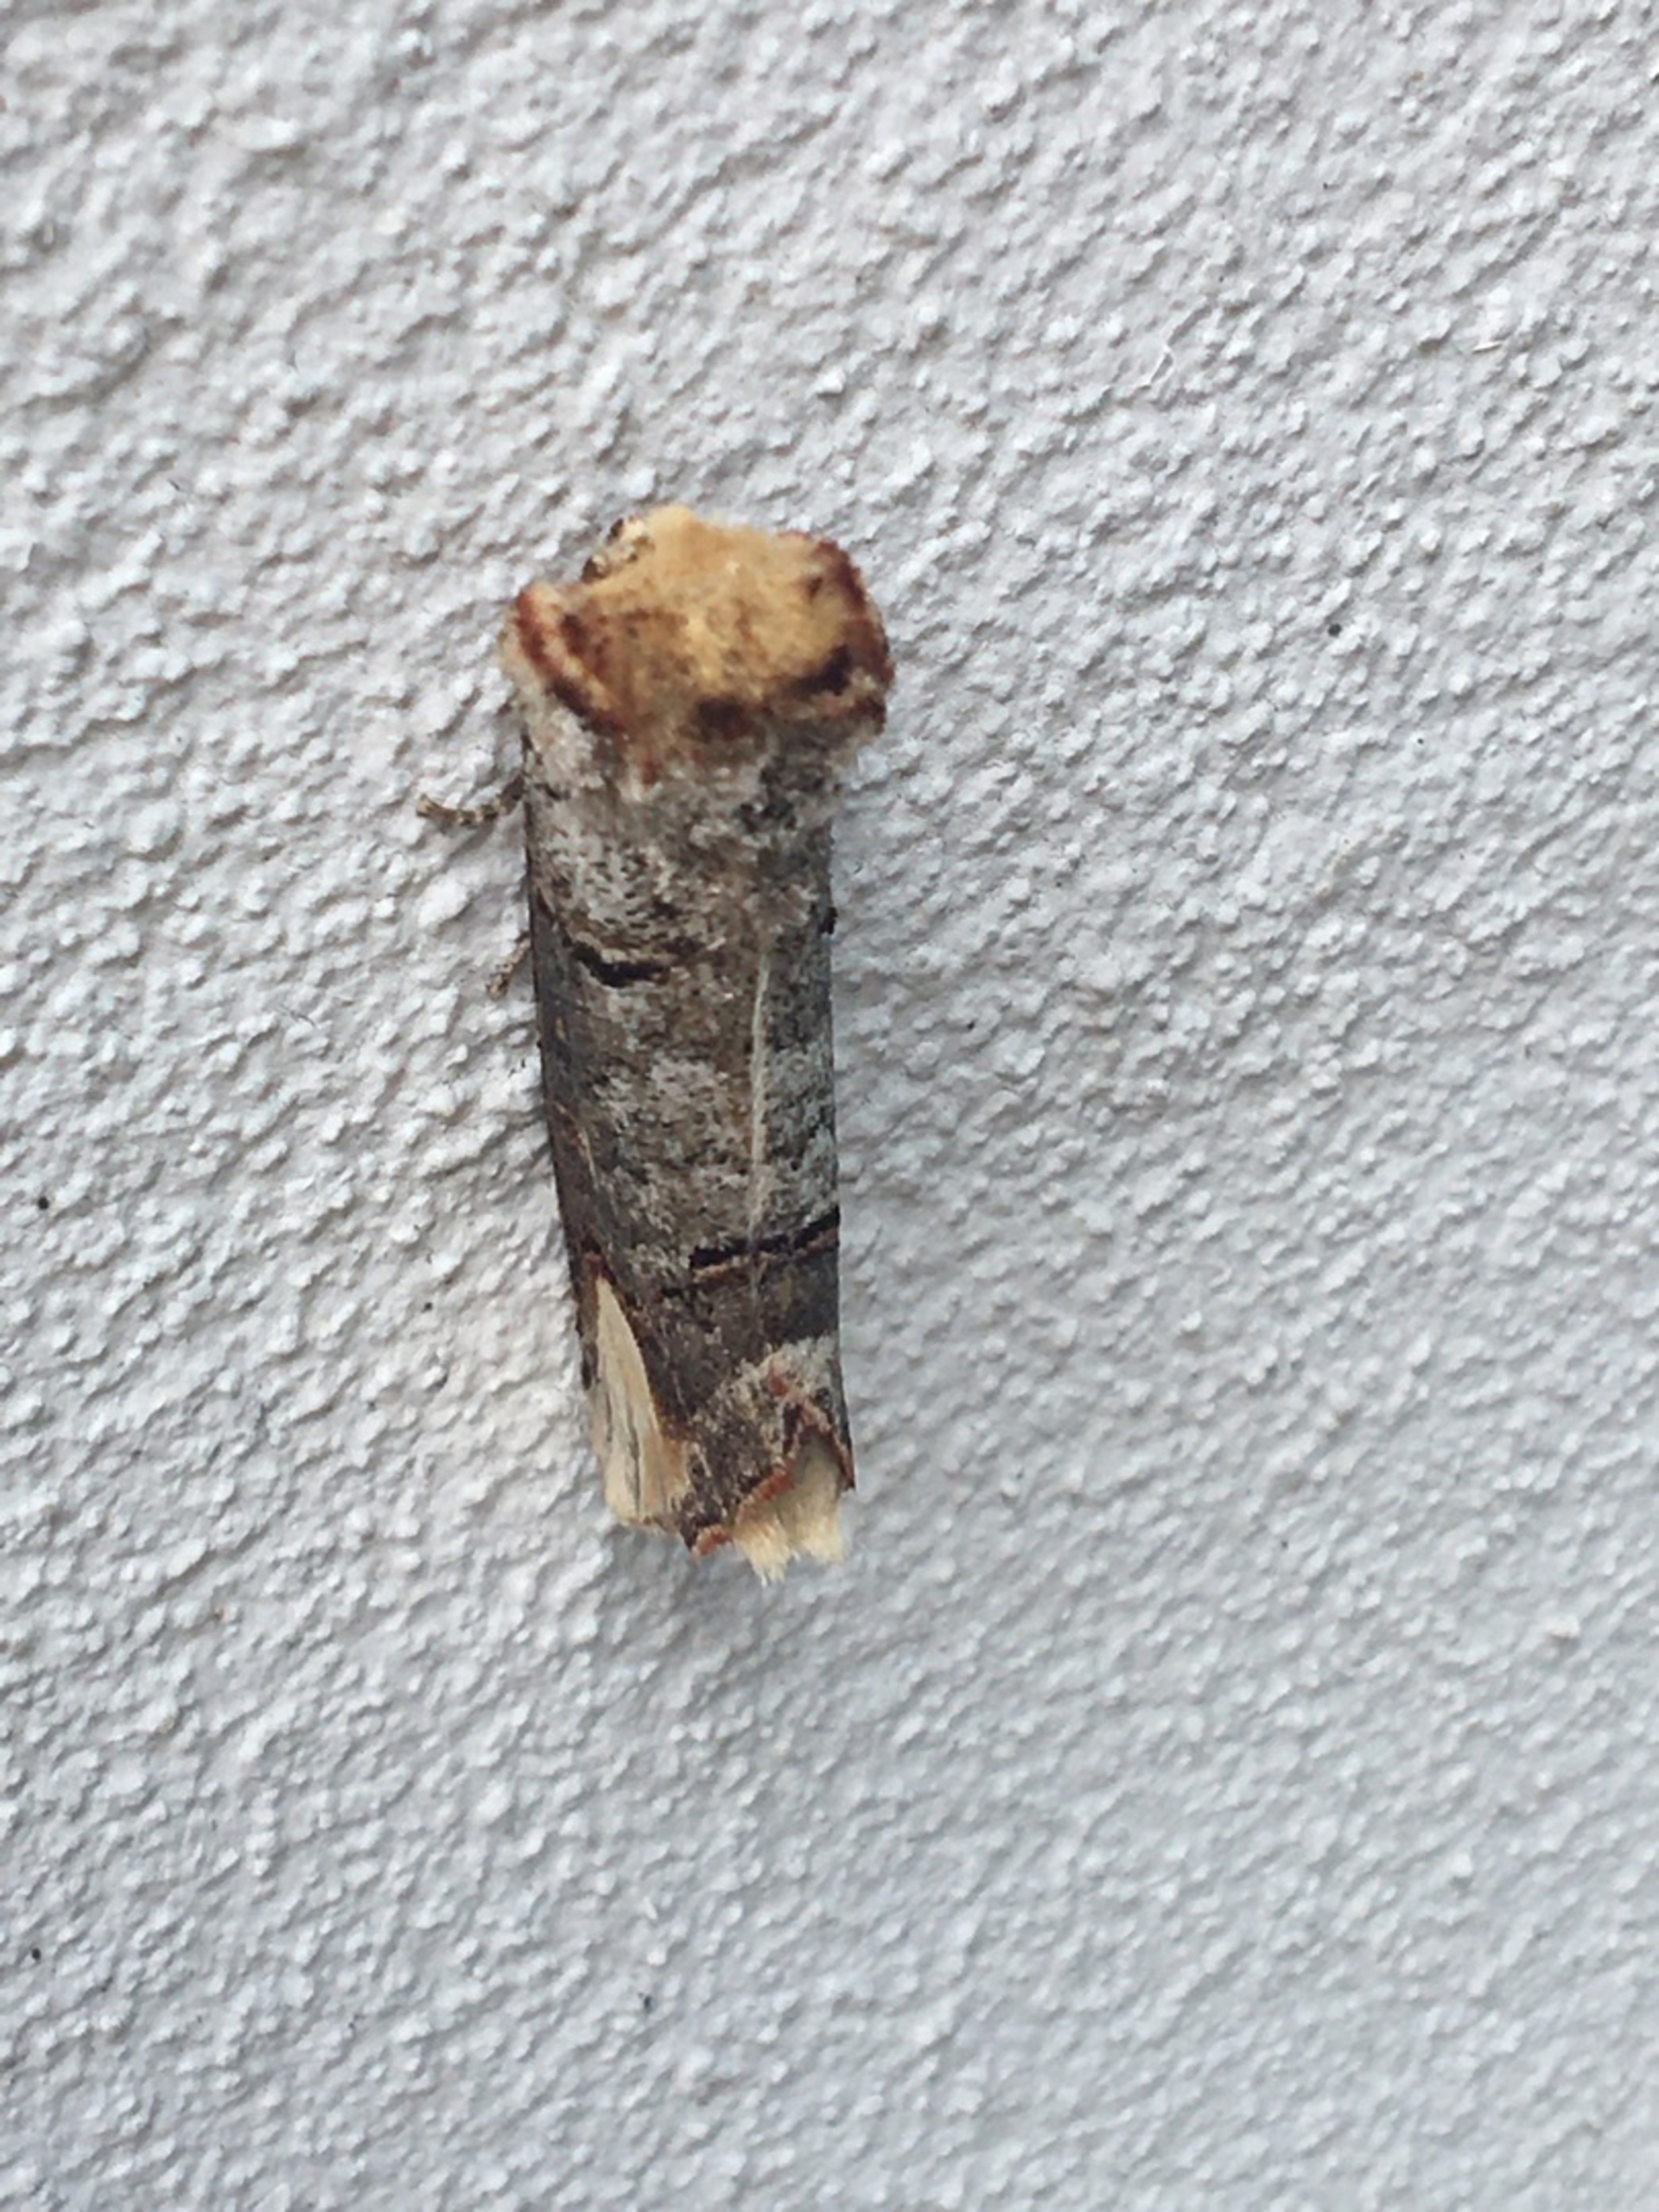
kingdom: Animalia
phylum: Arthropoda
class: Insecta
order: Lepidoptera
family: Notodontidae
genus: Phalera
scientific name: Phalera bucephala
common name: Måneplet
